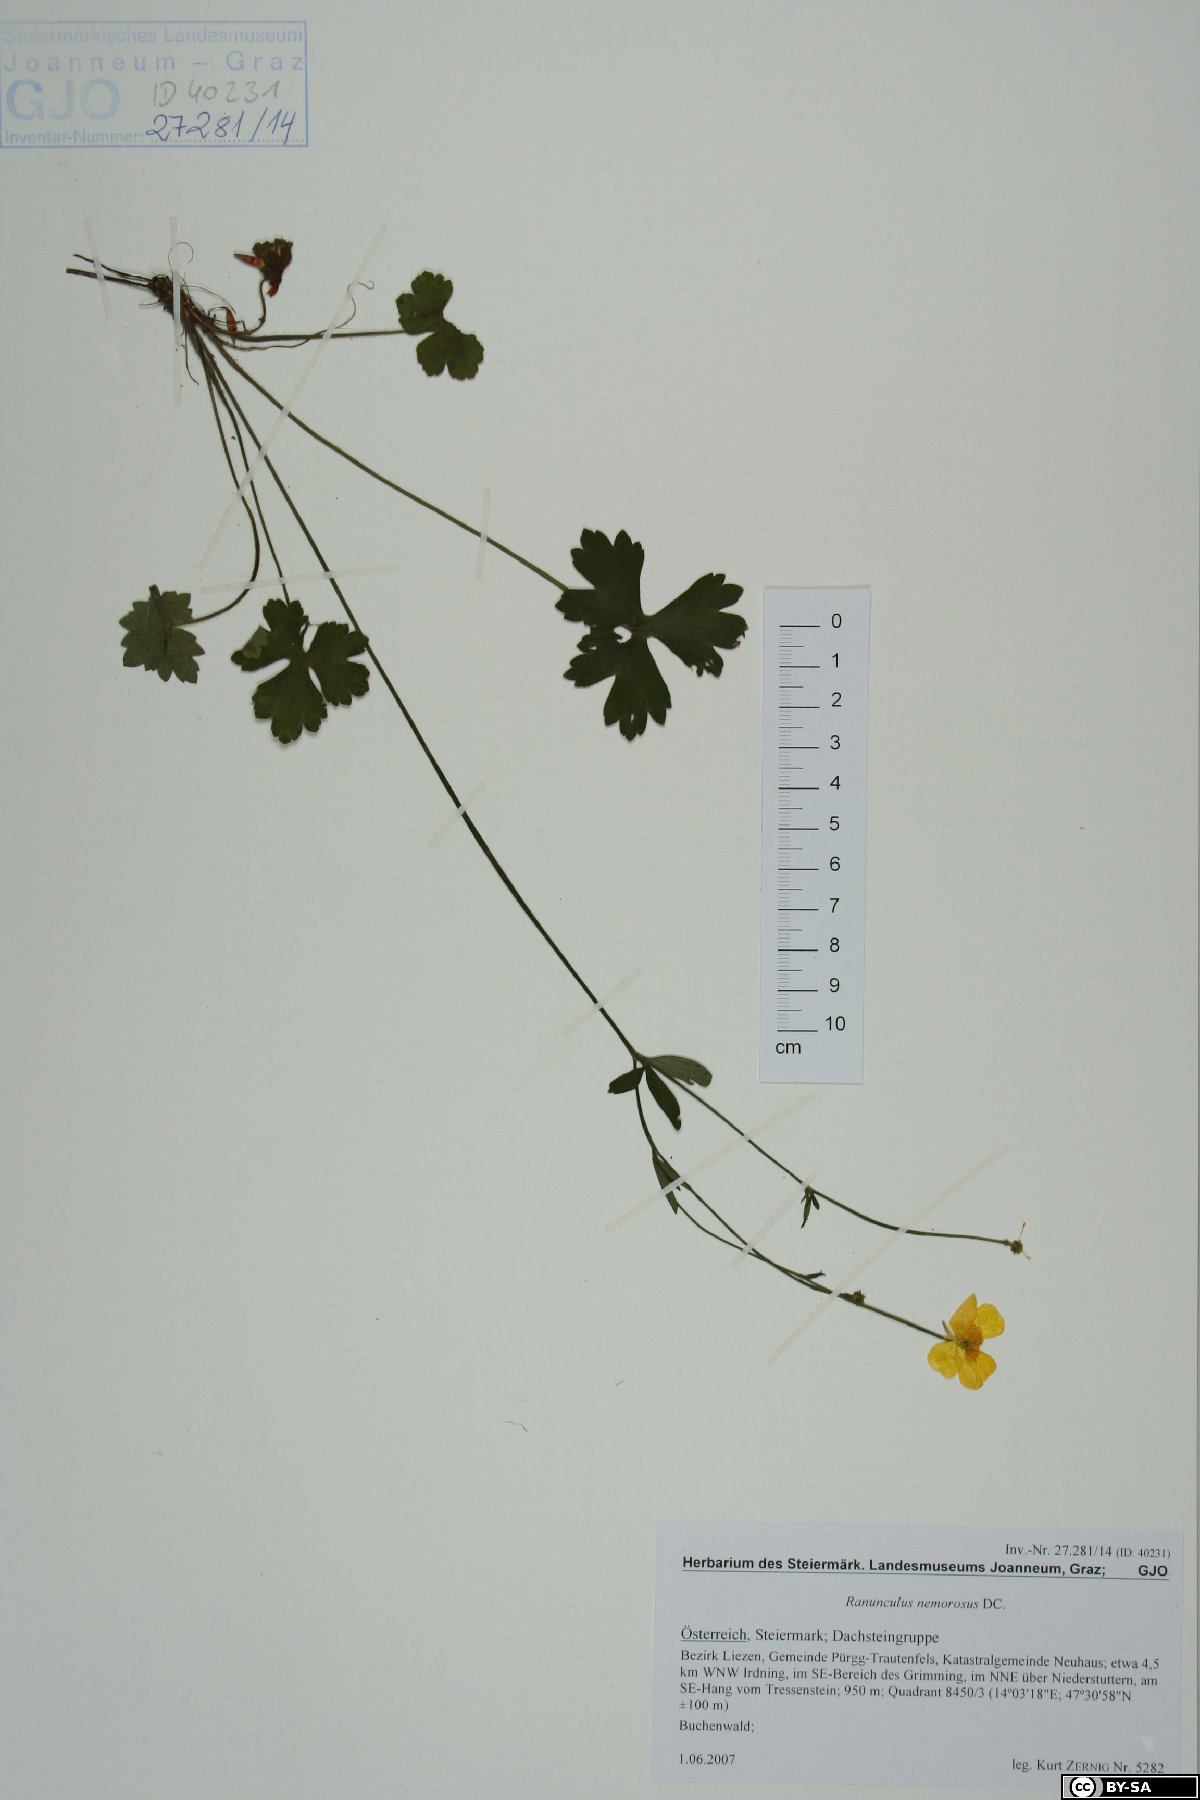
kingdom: Plantae
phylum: Tracheophyta
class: Magnoliopsida
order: Ranunculales
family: Ranunculaceae
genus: Ranunculus
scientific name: Ranunculus polyanthemos
